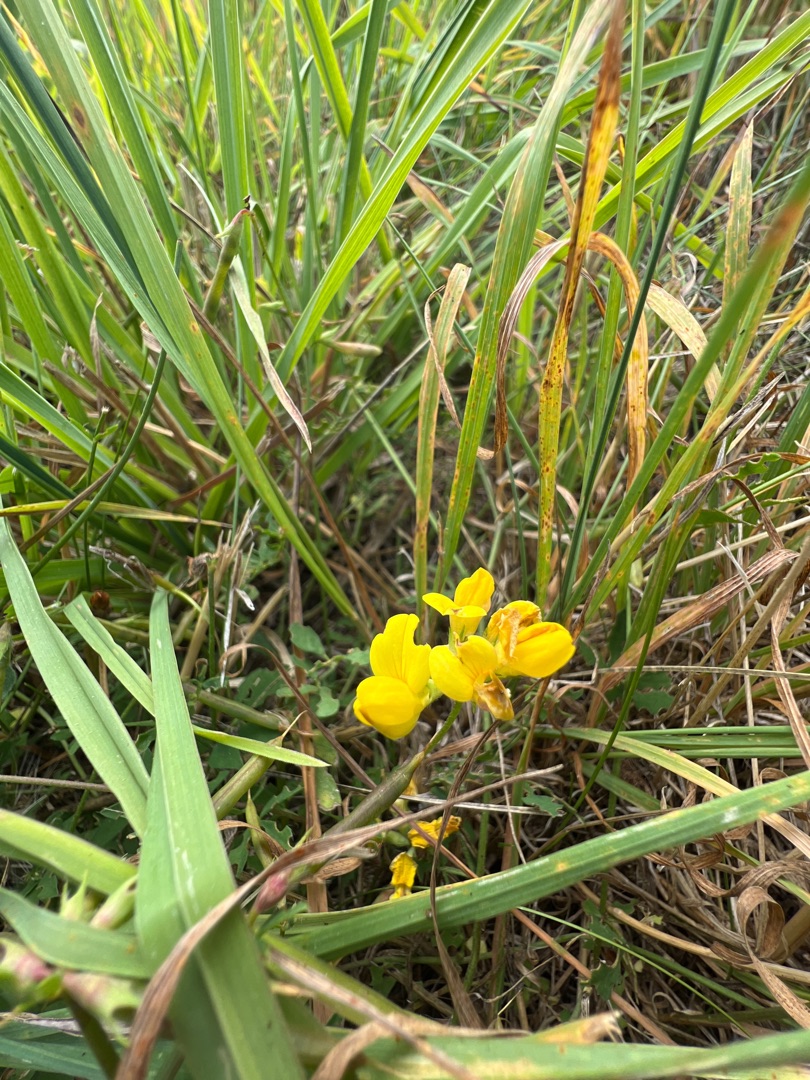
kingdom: Plantae
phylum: Tracheophyta
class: Magnoliopsida
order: Fabales
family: Fabaceae
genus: Lotus
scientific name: Lotus corniculatus
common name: Almindelig kællingetand
